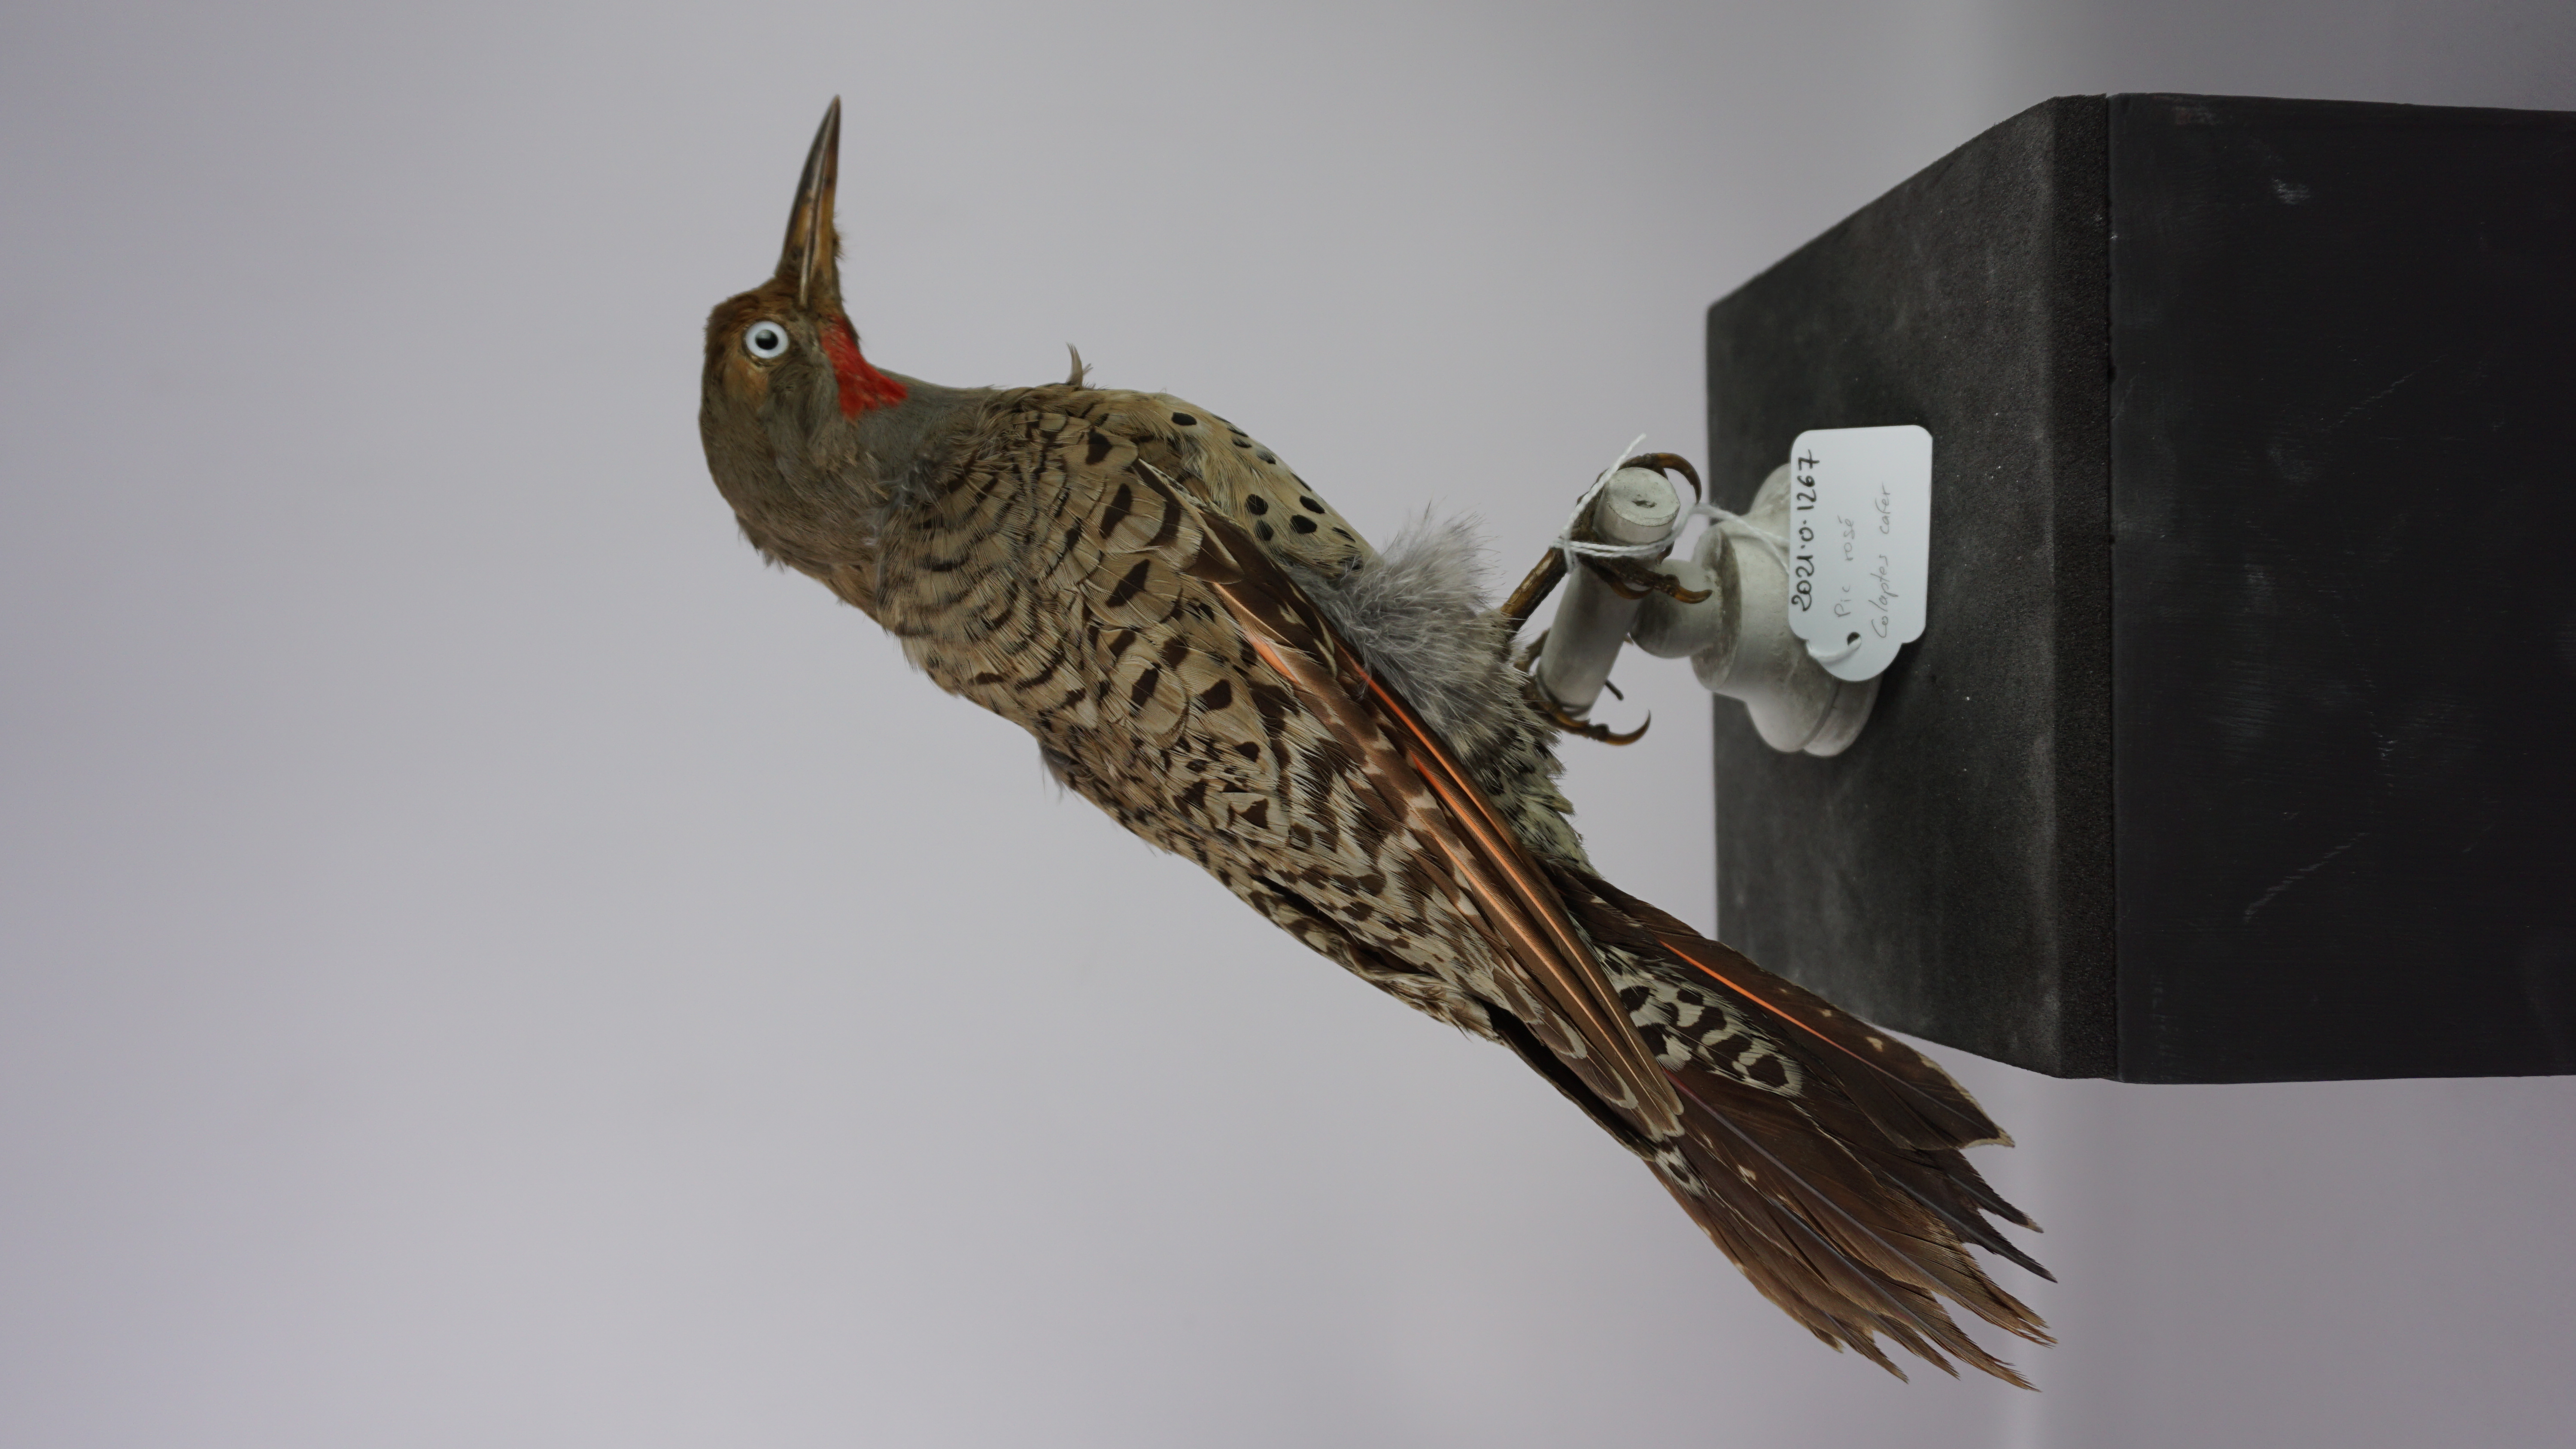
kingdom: Animalia
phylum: Chordata
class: Aves
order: Piciformes
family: Picidae
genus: Colaptes
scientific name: Colaptes auratus
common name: Northern flicker
